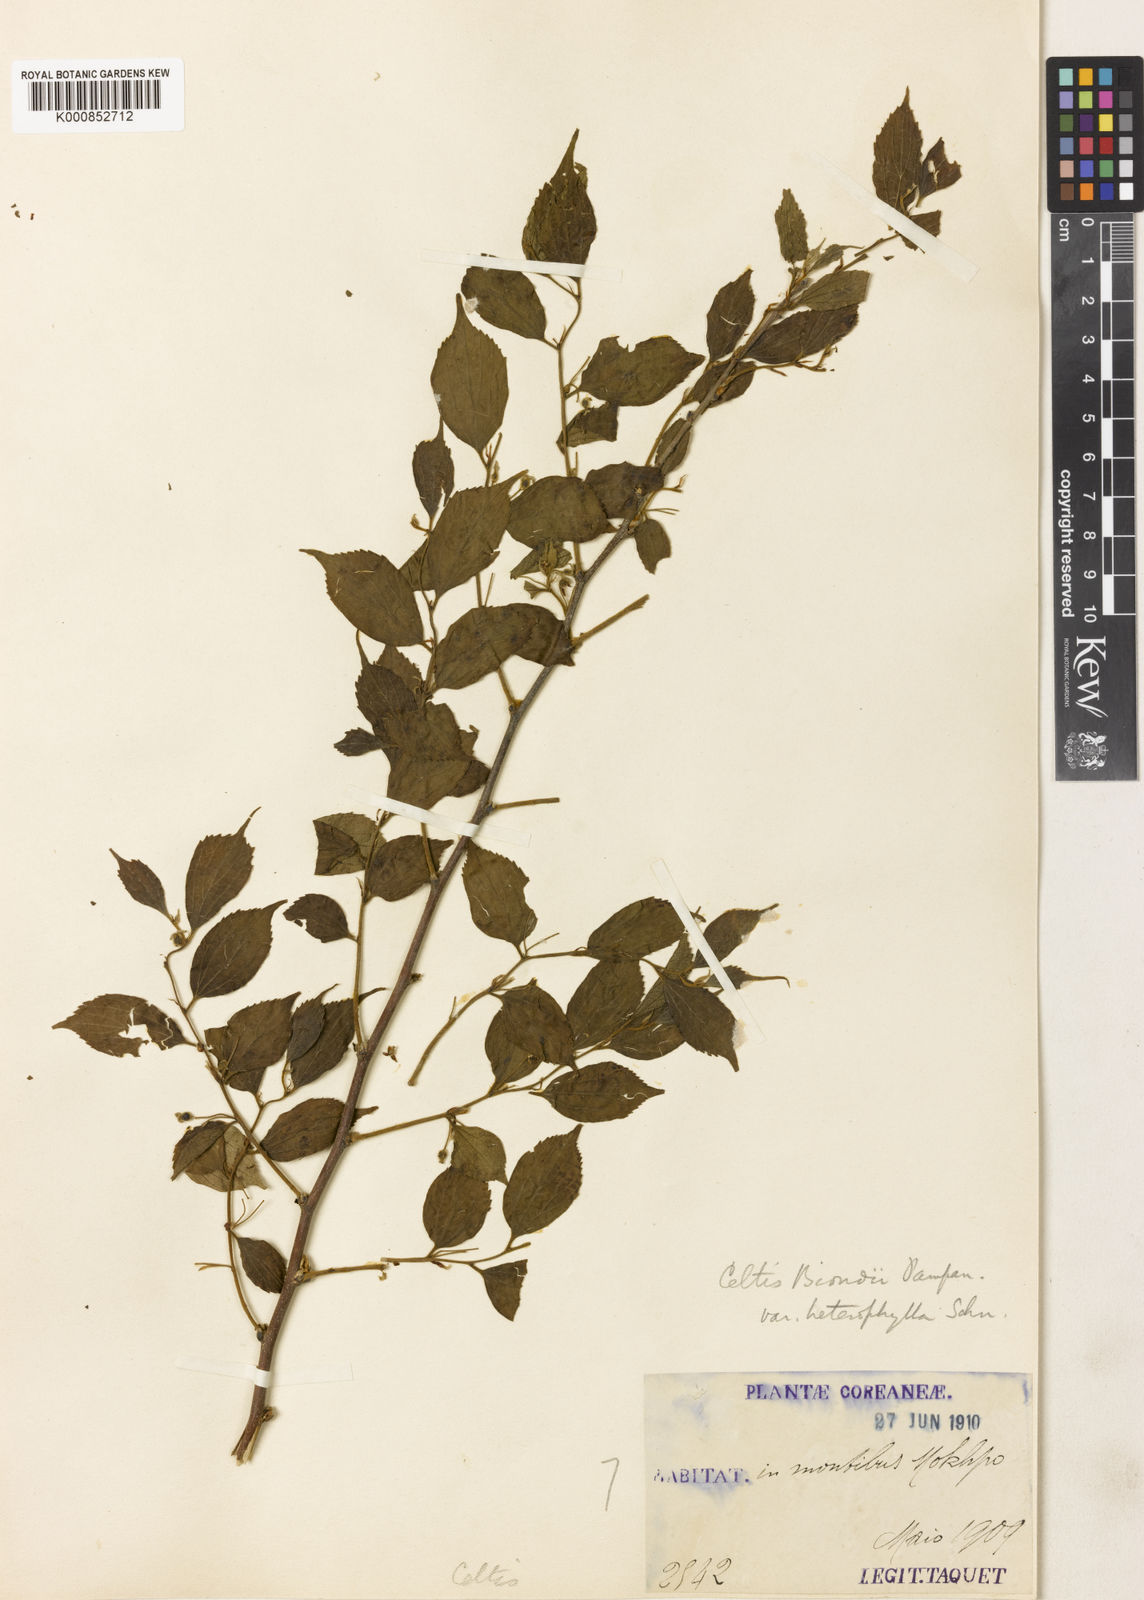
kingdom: Plantae
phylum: Tracheophyta
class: Magnoliopsida
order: Rosales
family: Cannabaceae
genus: Celtis
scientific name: Celtis biondii
